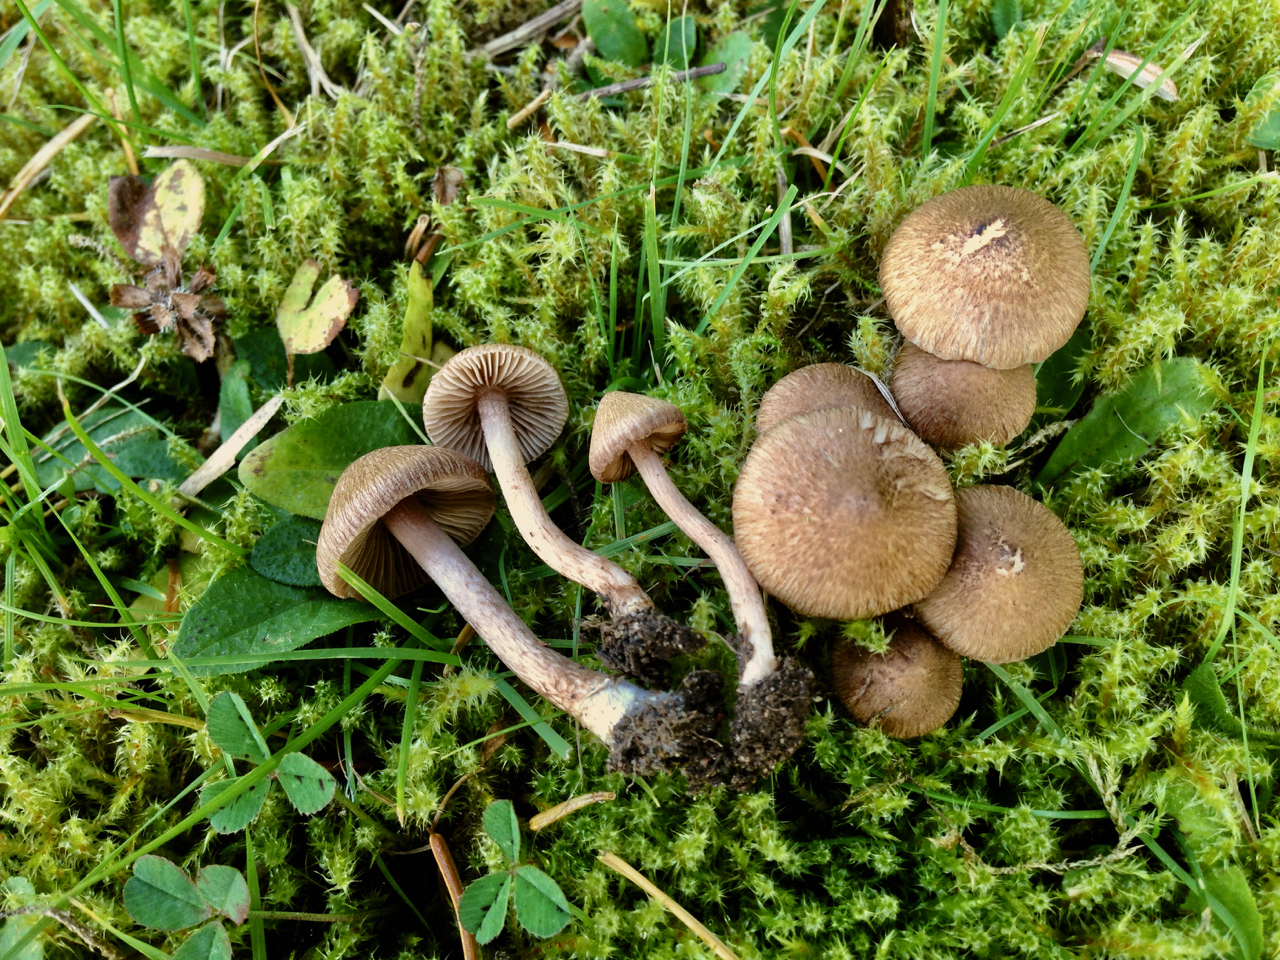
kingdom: Fungi
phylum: Basidiomycota
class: Agaricomycetes
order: Agaricales
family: Inocybaceae
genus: Inocybe
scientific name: Inocybe cincinnata
